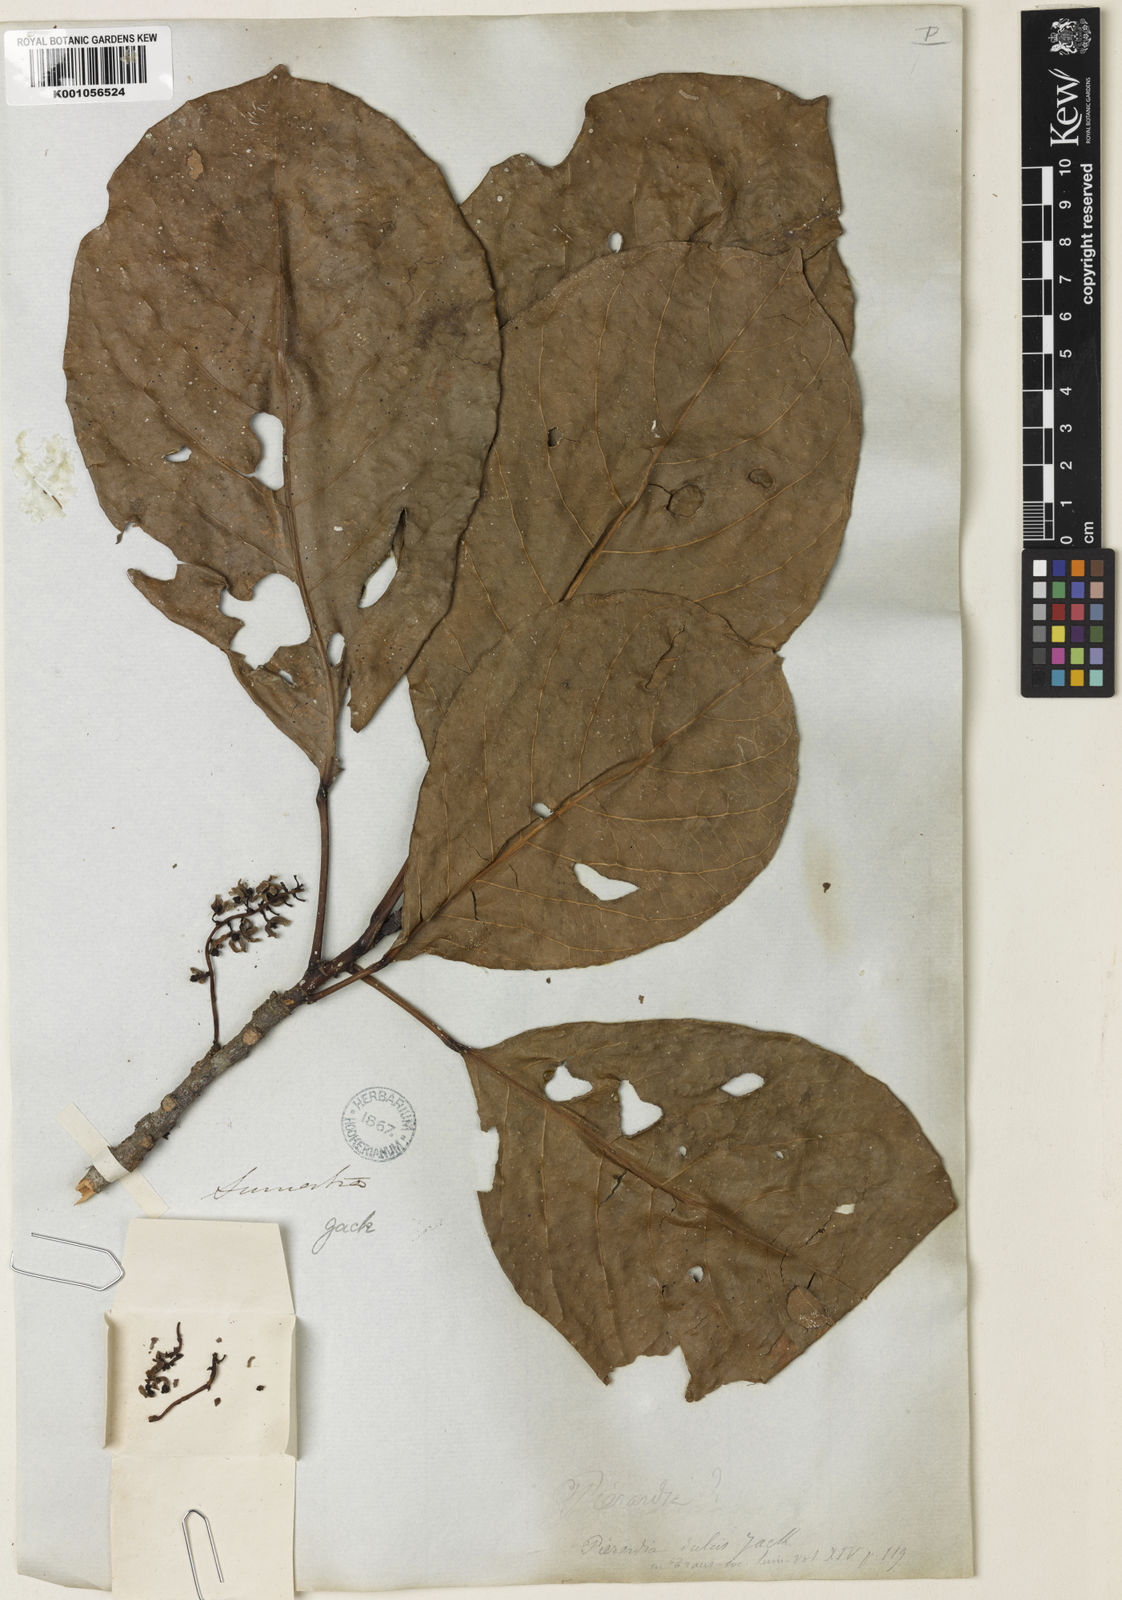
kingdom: Plantae
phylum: Tracheophyta
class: Magnoliopsida
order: Malpighiales
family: Phyllanthaceae
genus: Baccaurea
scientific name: Baccaurea
